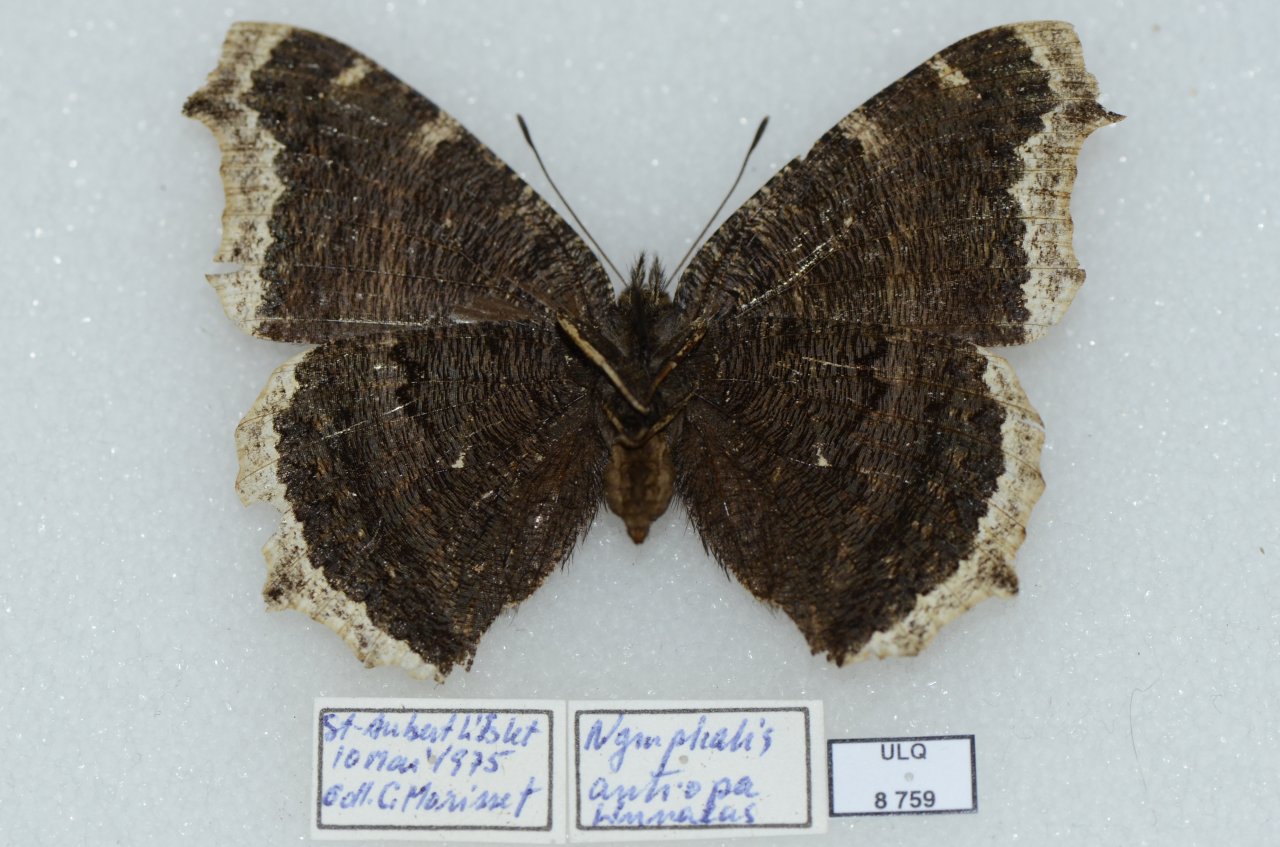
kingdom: Animalia
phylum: Arthropoda
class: Insecta
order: Lepidoptera
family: Nymphalidae
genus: Nymphalis
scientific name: Nymphalis antiopa
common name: Mourning Cloak
